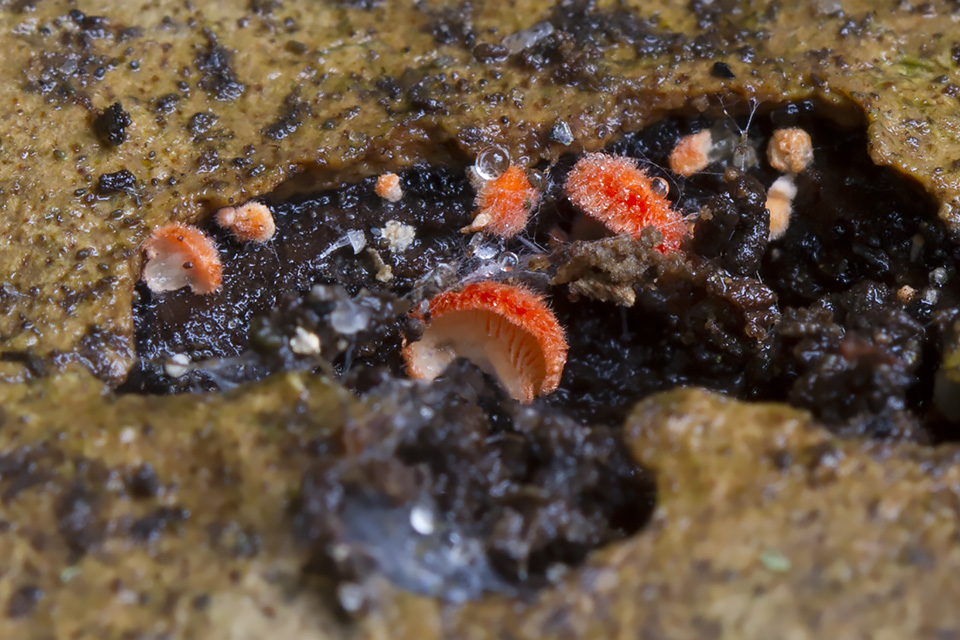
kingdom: Fungi
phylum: Basidiomycota
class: Agaricomycetes
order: Agaricales
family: Crepidotaceae
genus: Crepidotus
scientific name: Crepidotus cinnabarinus
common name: cinnober-muslingesvamp
